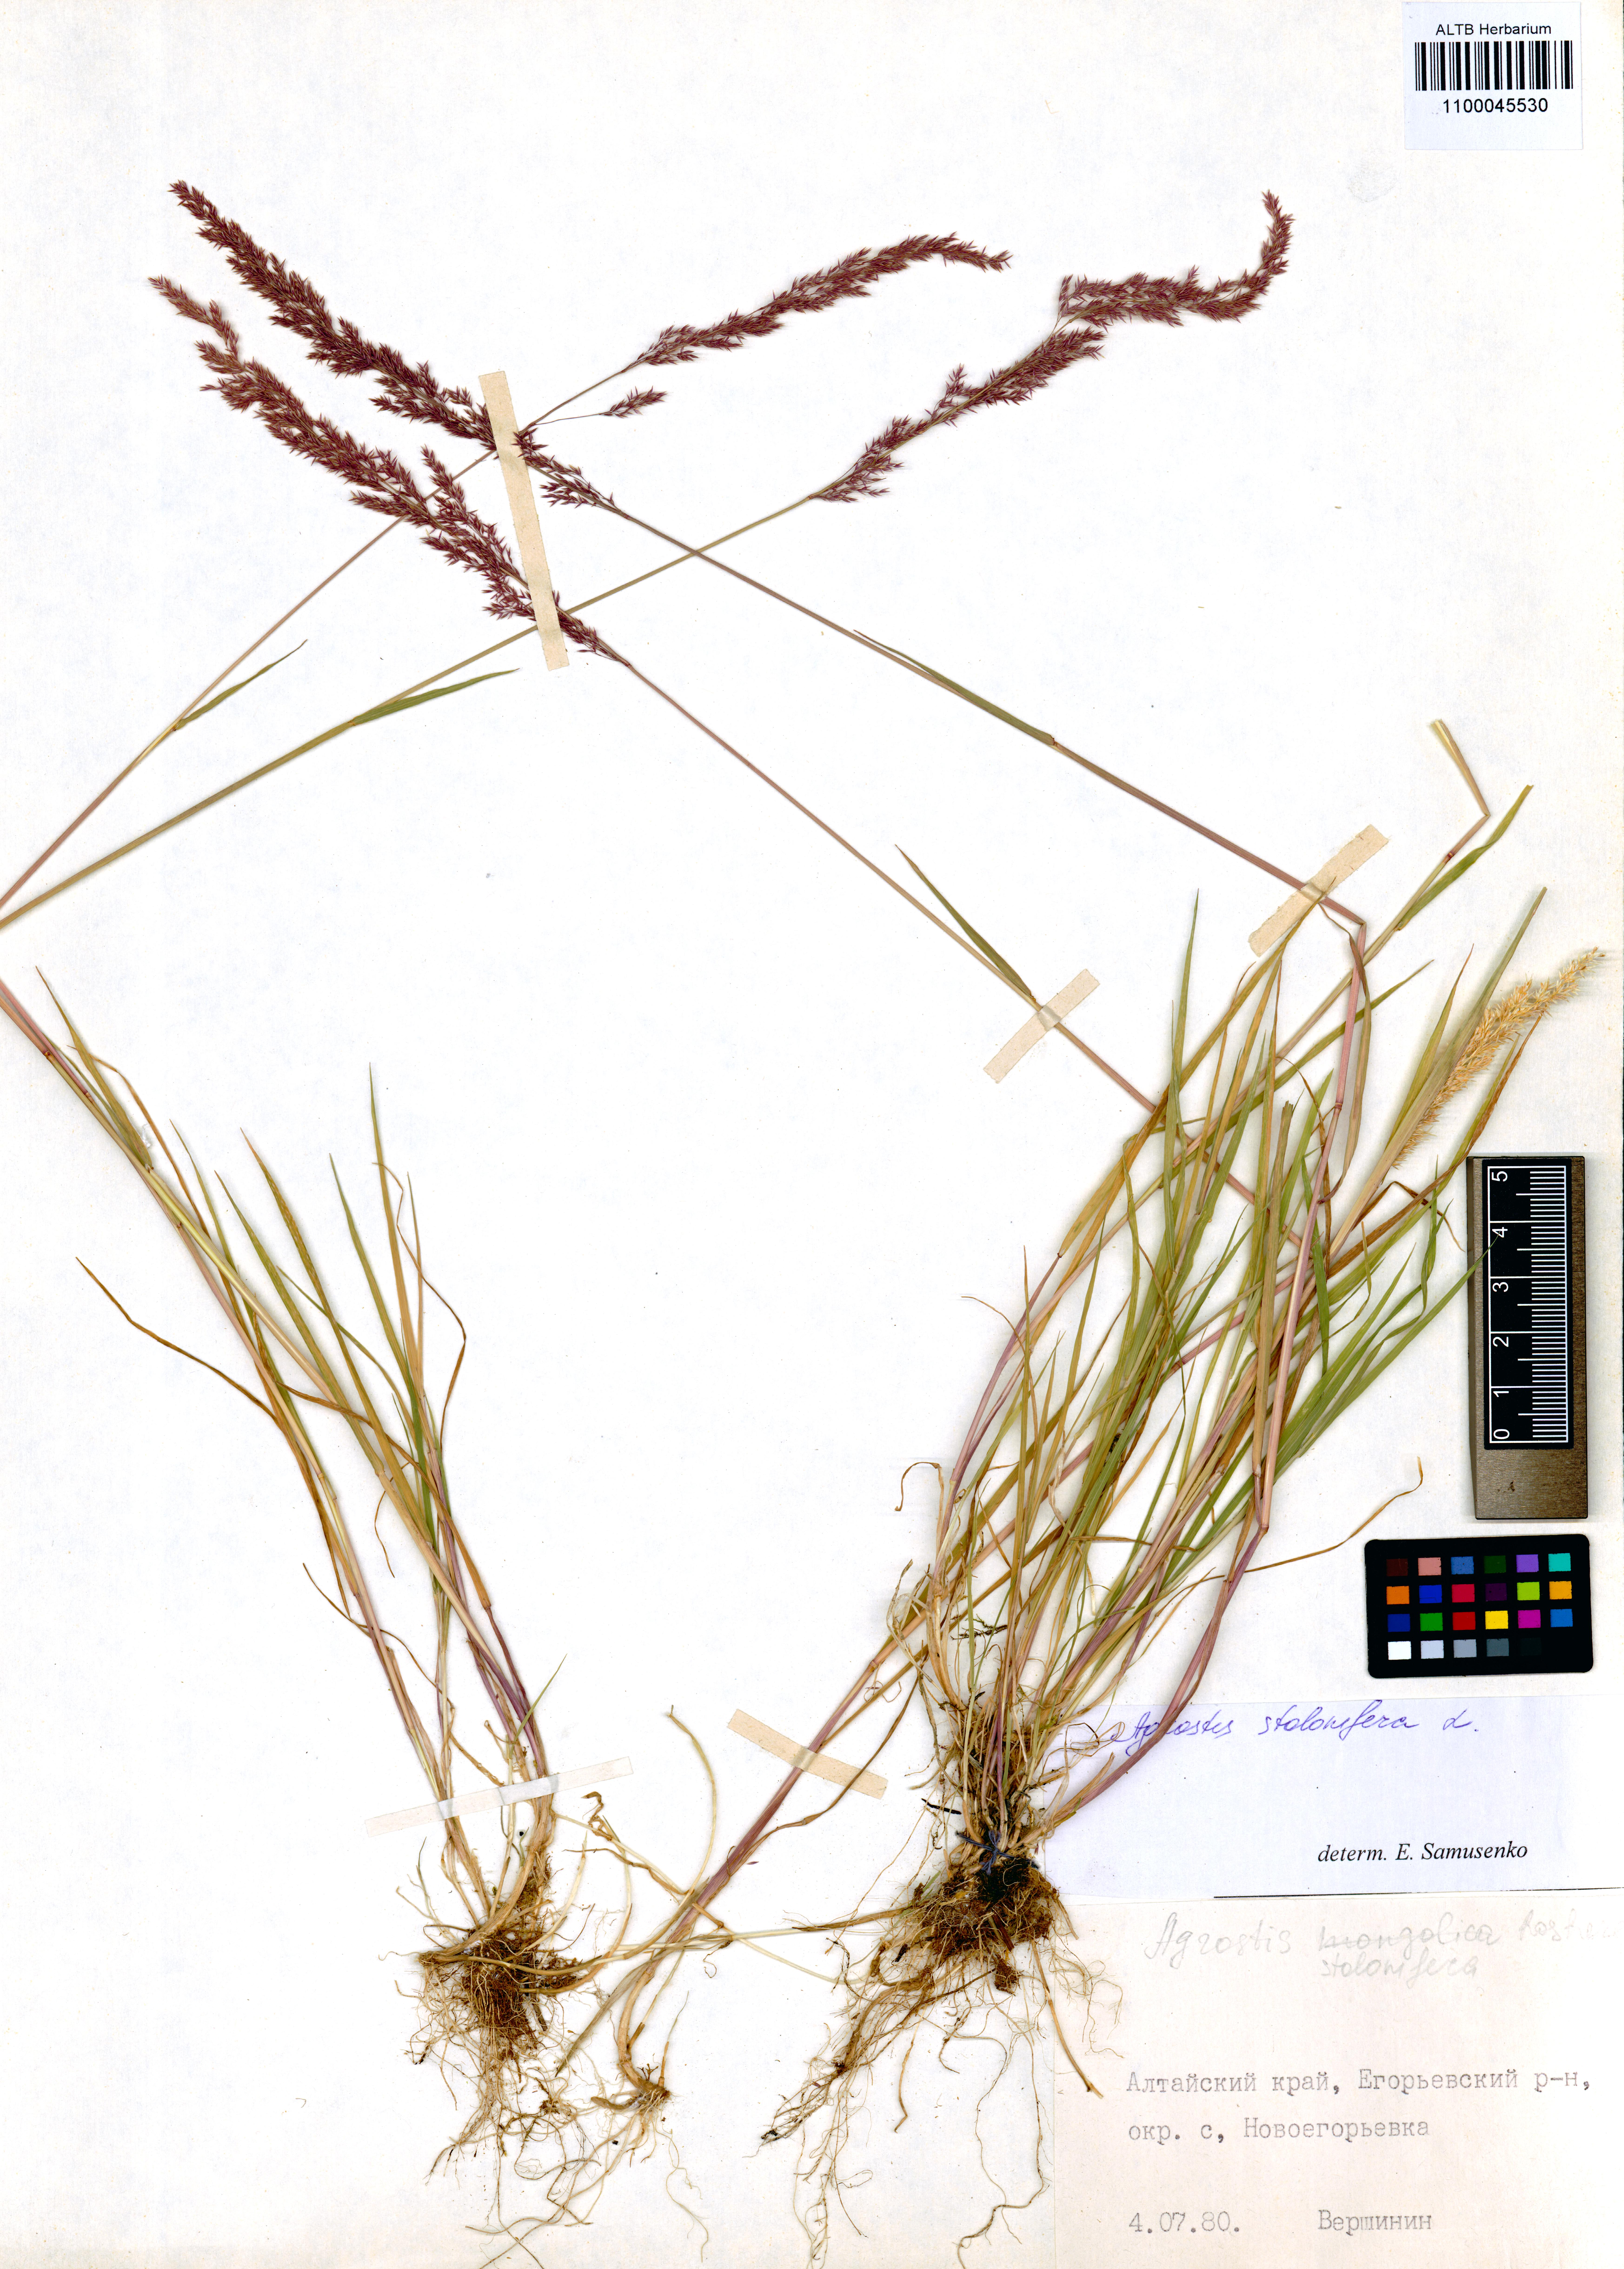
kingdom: Plantae
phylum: Tracheophyta
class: Liliopsida
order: Poales
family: Poaceae
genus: Agrostis
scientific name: Agrostis stolonifera
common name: Creeping bentgrass
